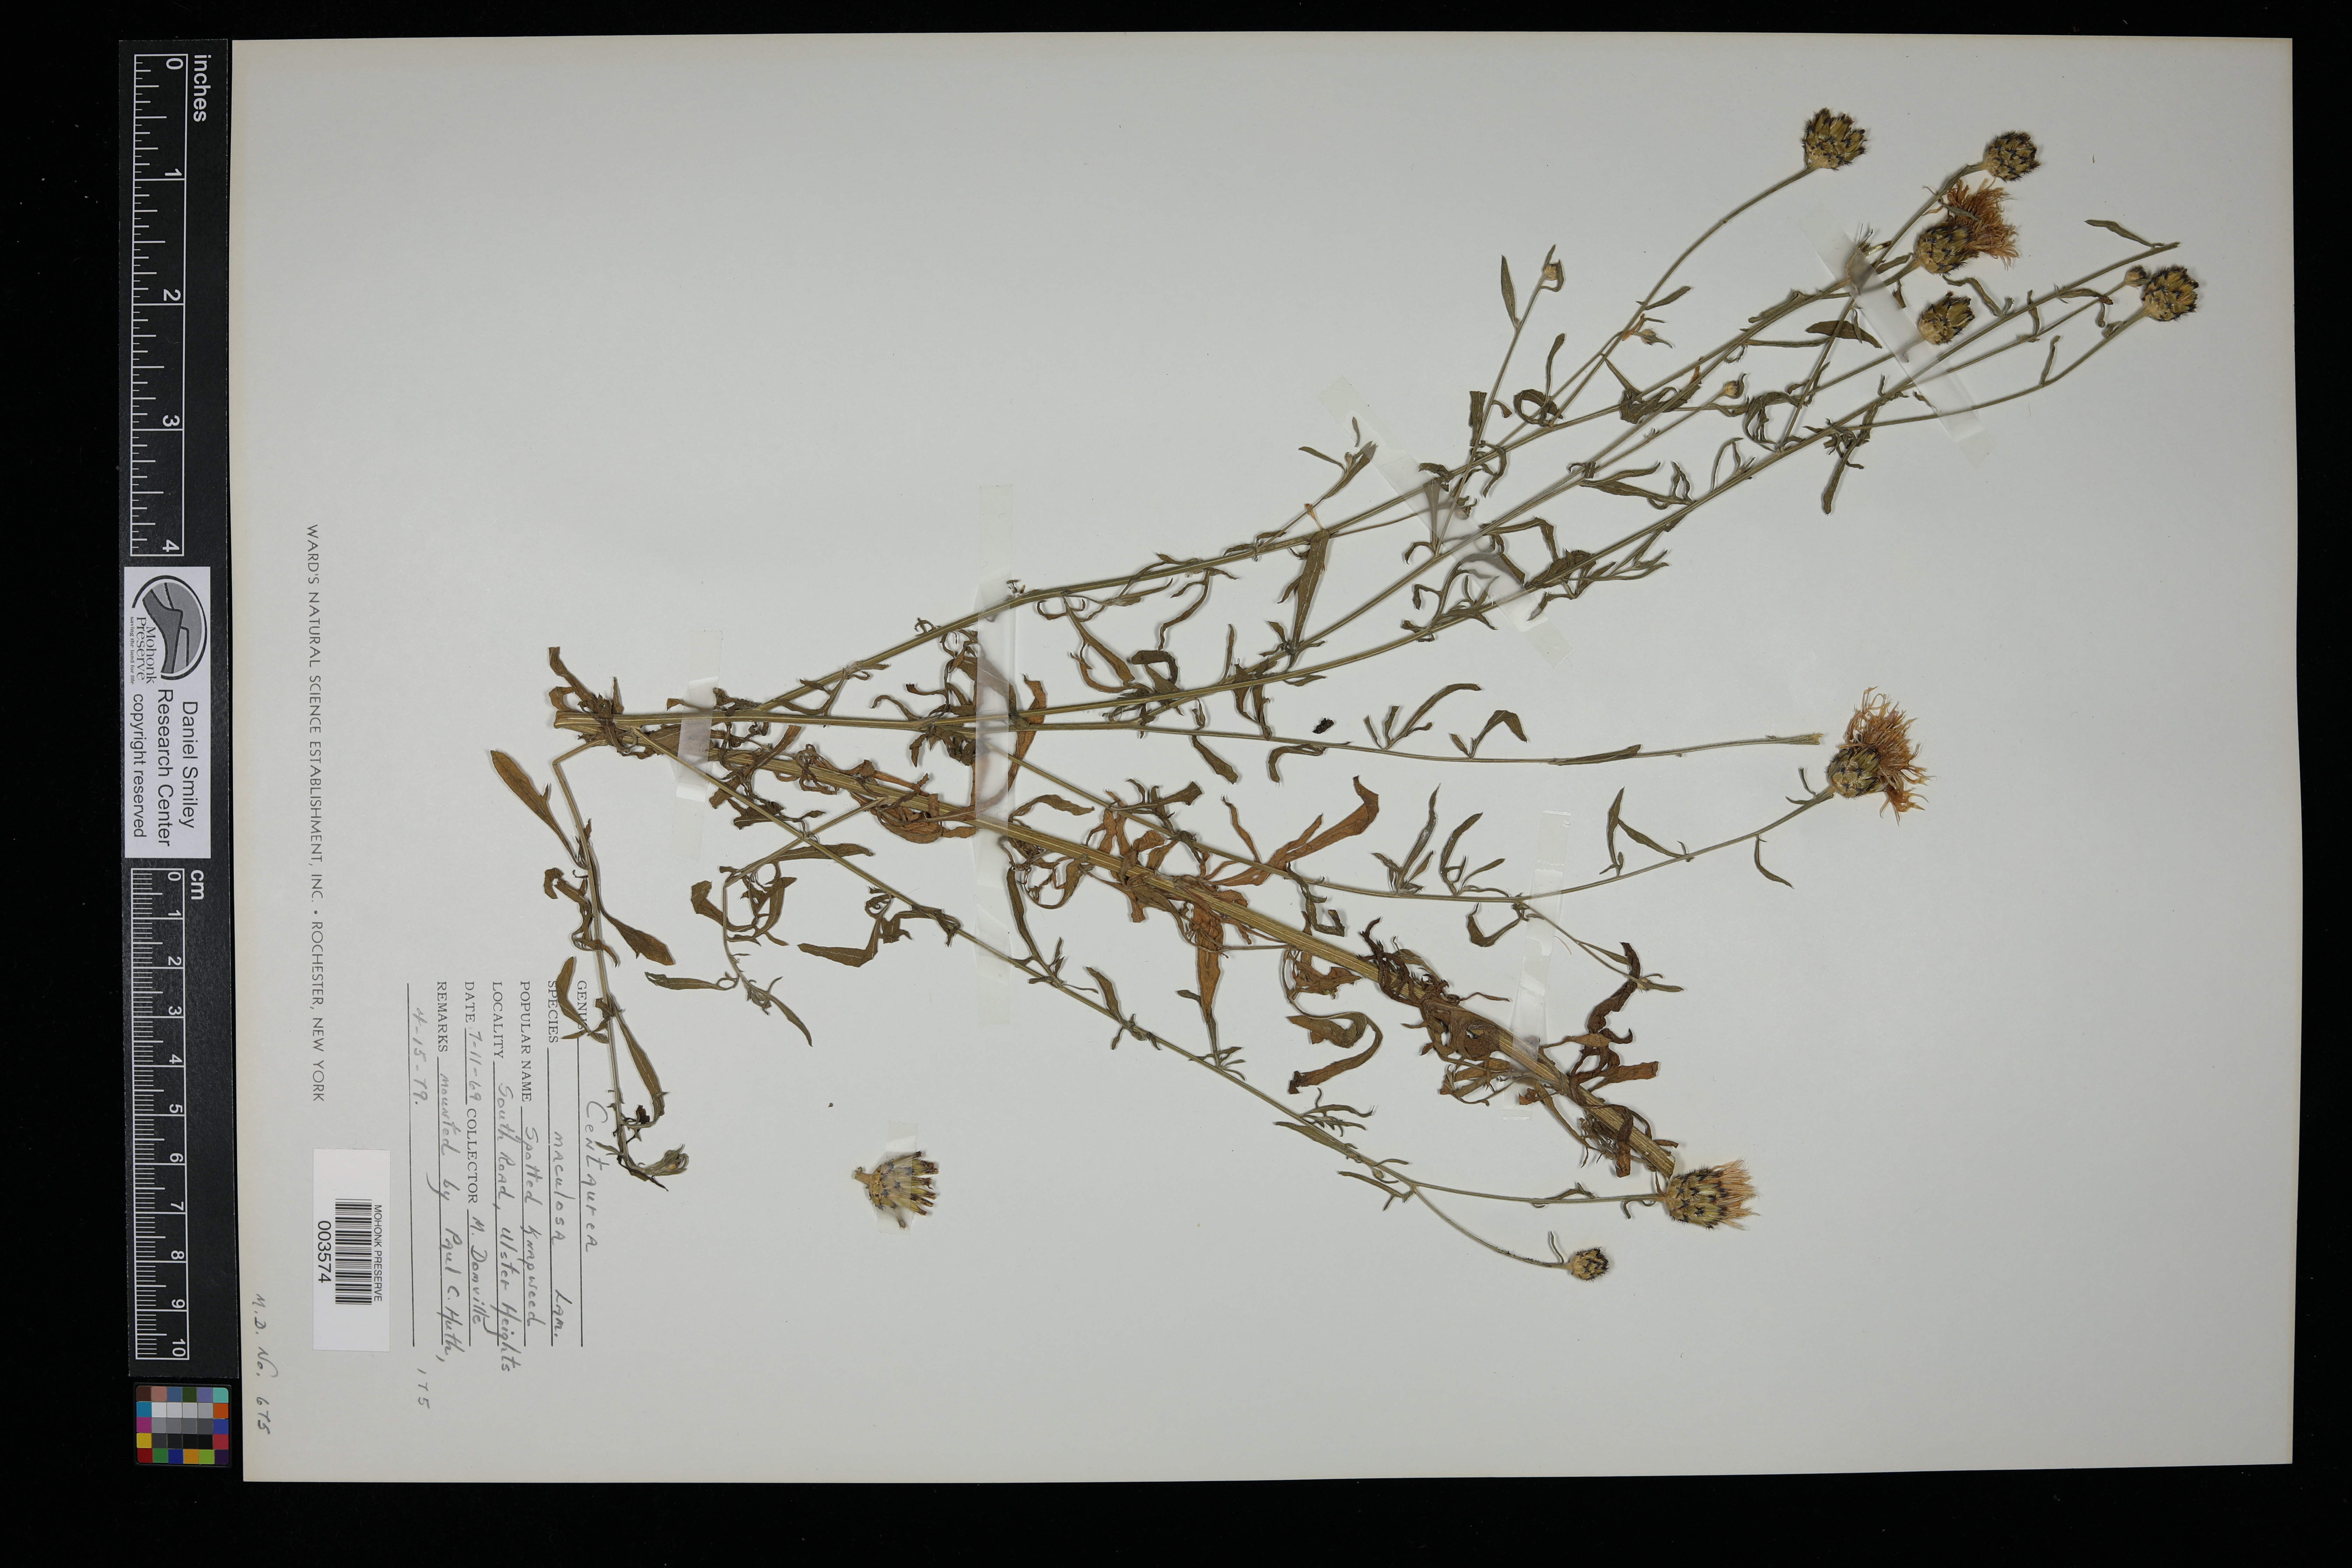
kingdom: Plantae
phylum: Tracheophyta
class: Magnoliopsida
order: Asterales
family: Asteraceae
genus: Centaurea
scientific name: Centaurea stoebe
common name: Spotted knapweed
